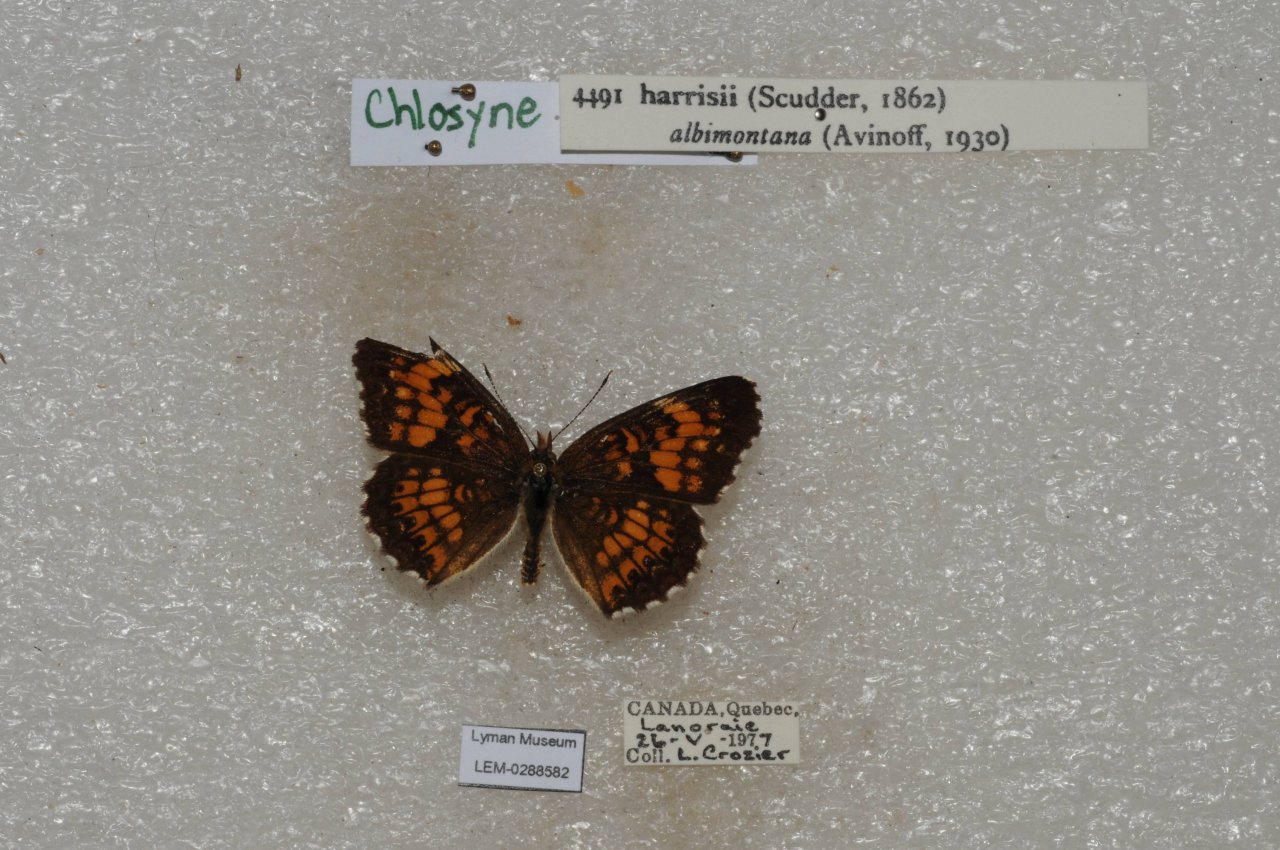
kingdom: Animalia
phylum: Arthropoda
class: Insecta
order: Lepidoptera
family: Nymphalidae
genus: Chlosyne
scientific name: Chlosyne harrisii
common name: Harris's Checkerspot
